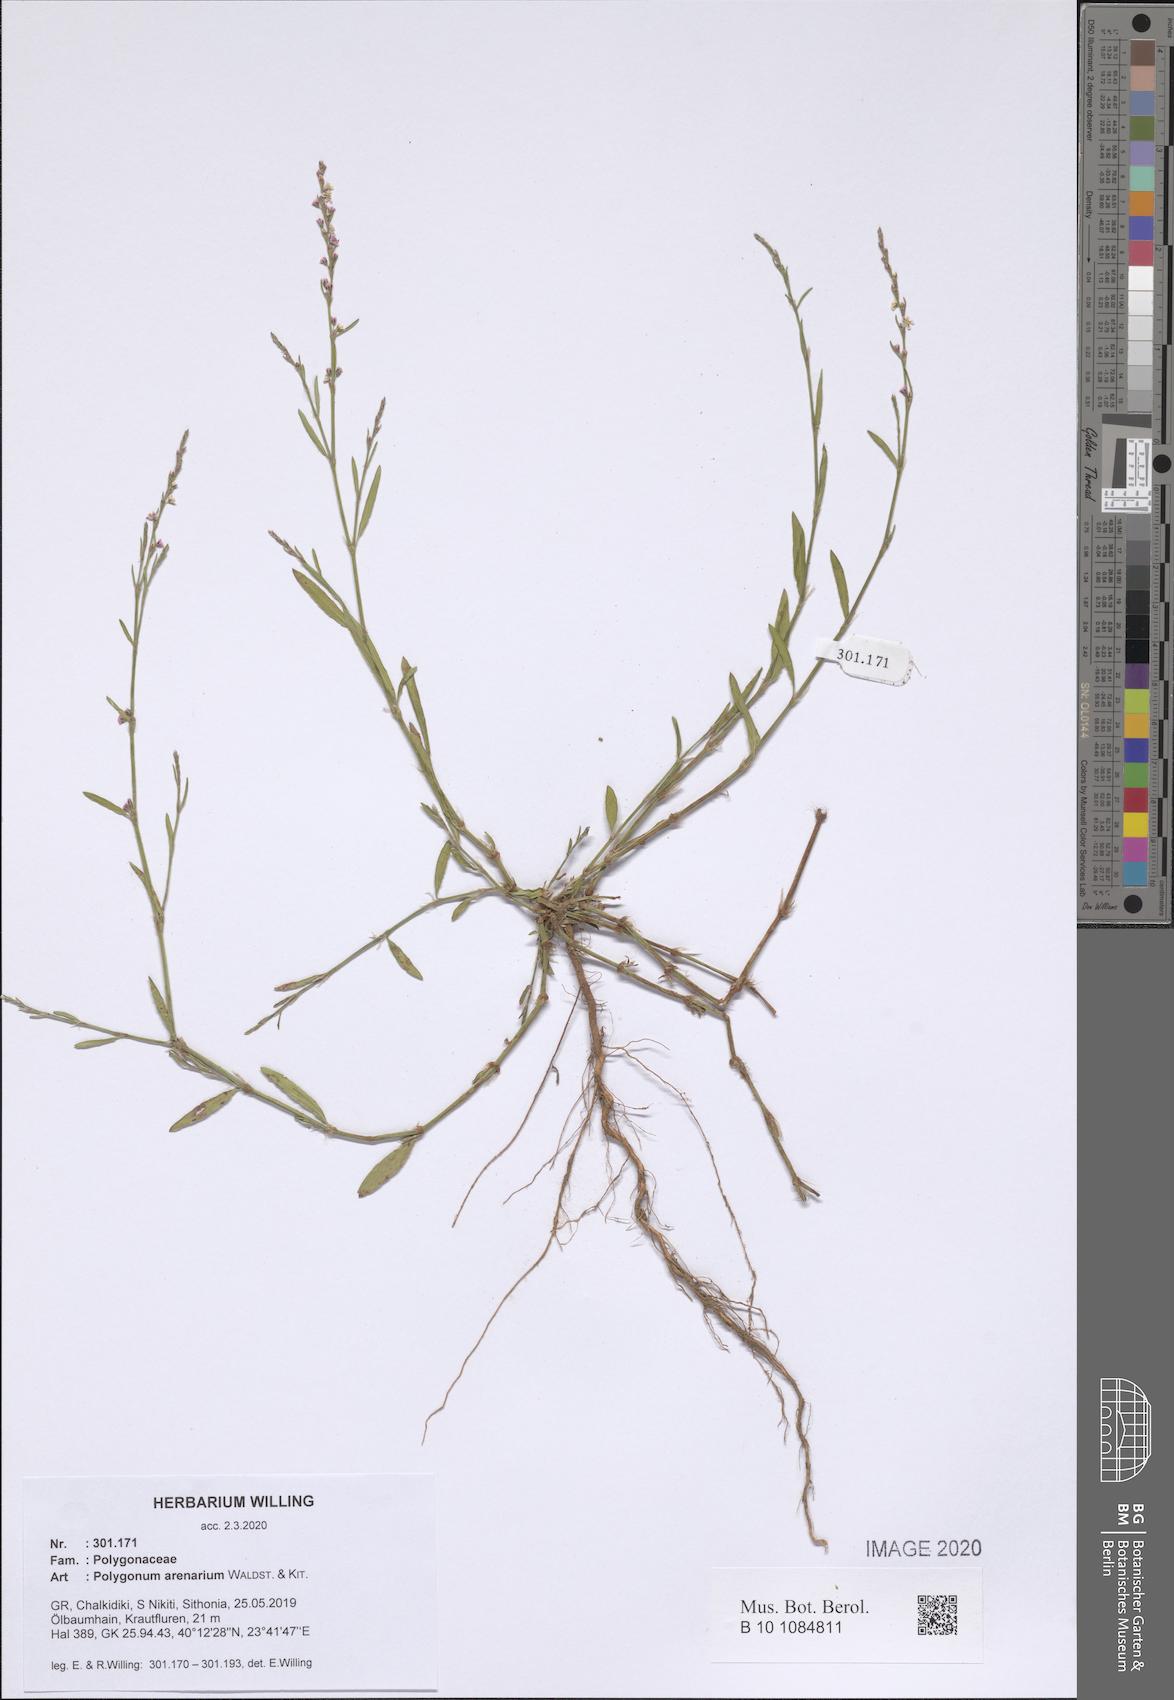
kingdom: Plantae
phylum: Tracheophyta
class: Magnoliopsida
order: Caryophyllales
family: Polygonaceae
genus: Polygonum
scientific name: Polygonum arenarium
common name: Lesser red-knotgrass
